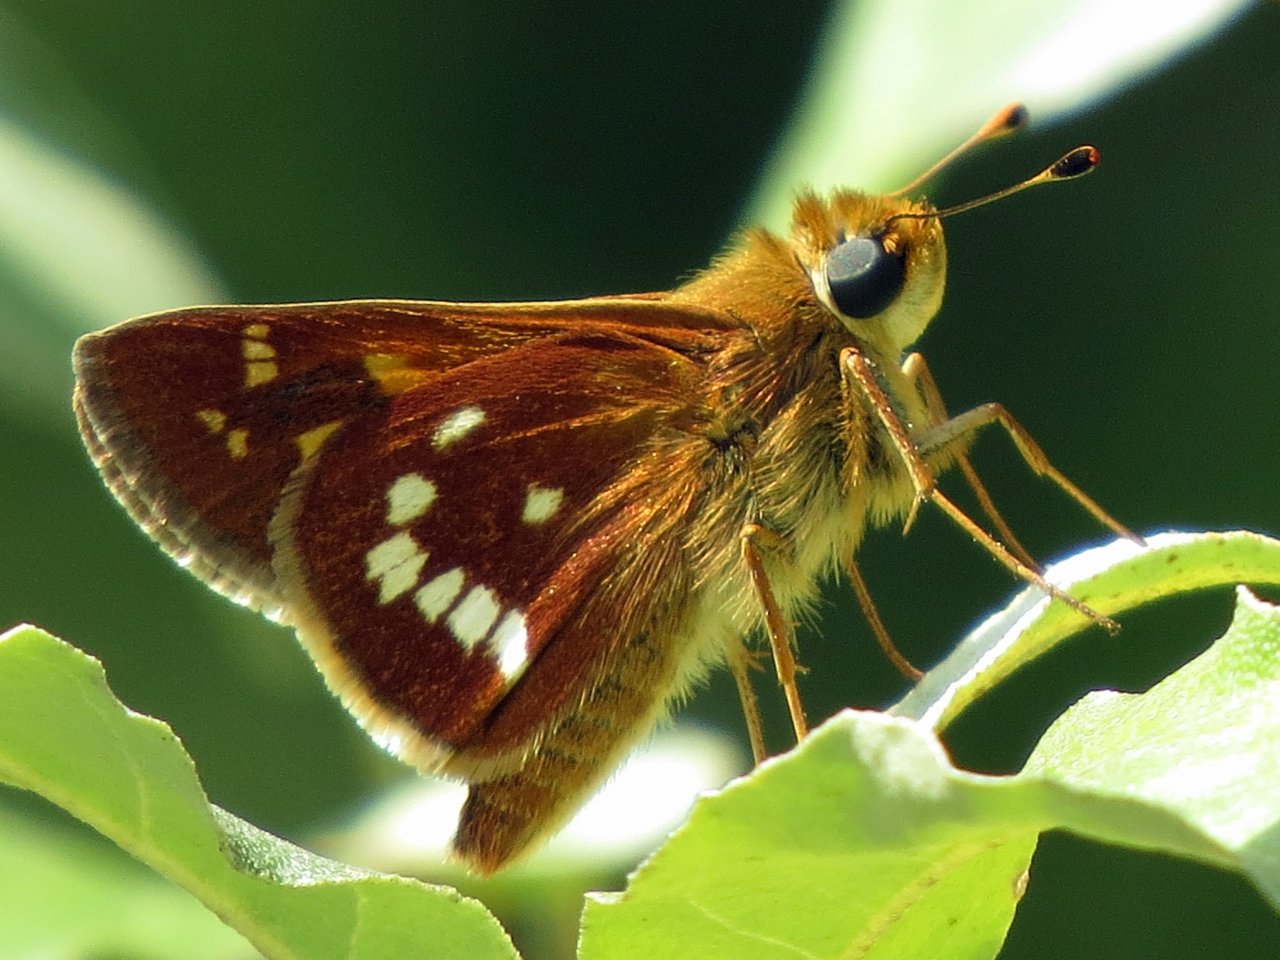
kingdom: Animalia
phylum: Arthropoda
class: Insecta
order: Lepidoptera
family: Hesperiidae
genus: Hesperia
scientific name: Hesperia leonardus
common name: Leonard's Skipper
